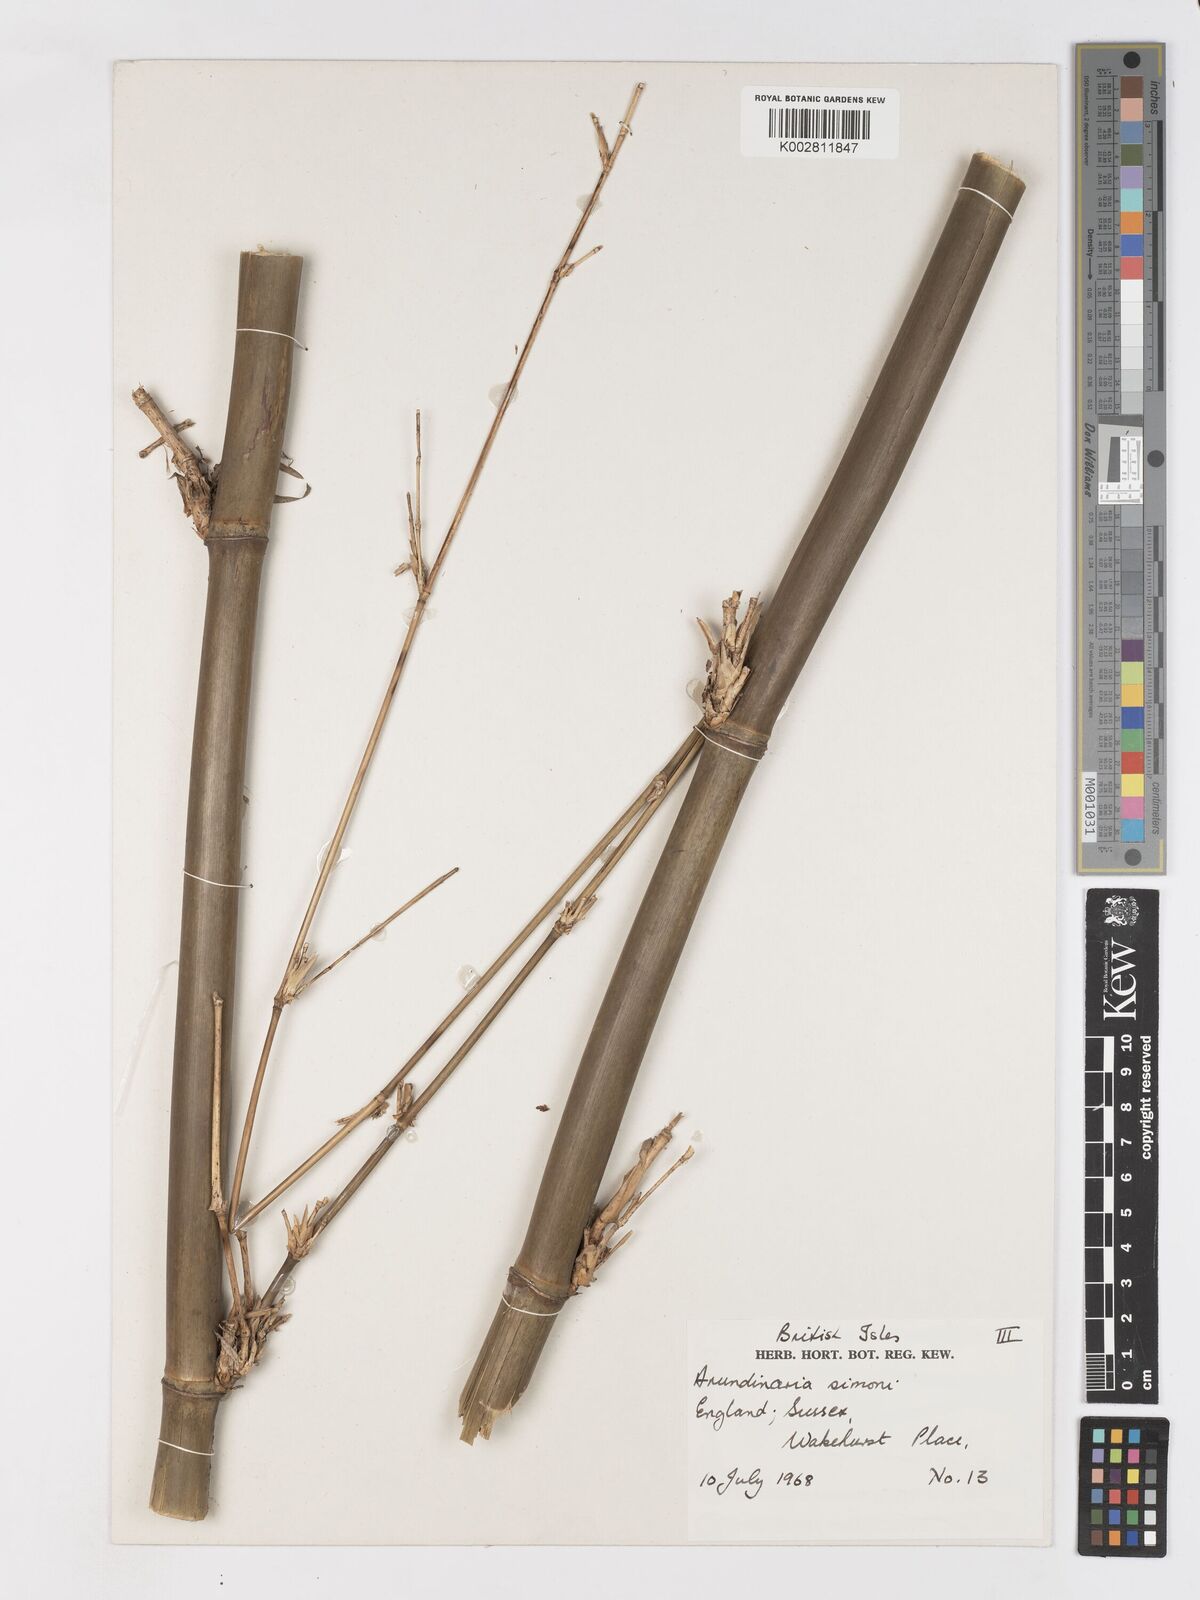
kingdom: Plantae
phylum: Tracheophyta
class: Liliopsida
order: Poales
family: Poaceae
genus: Pleioblastus
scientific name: Pleioblastus simonii
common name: Simon bamboo
